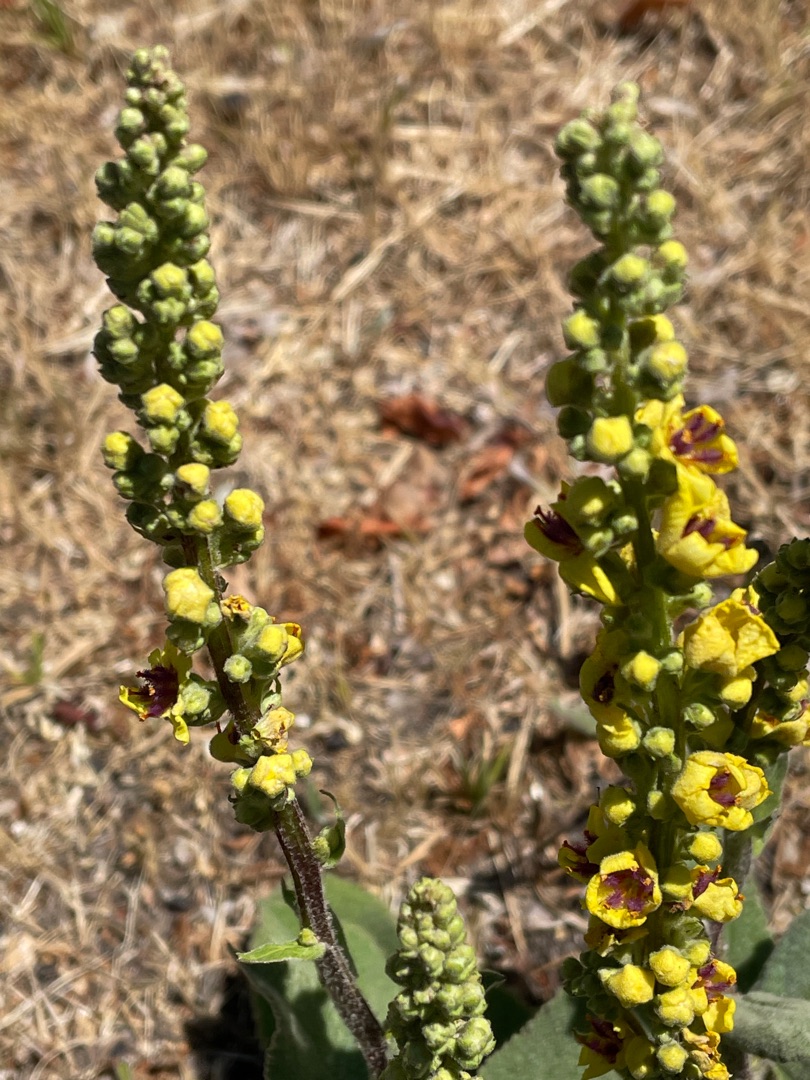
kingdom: Plantae
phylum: Tracheophyta
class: Magnoliopsida
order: Lamiales
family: Scrophulariaceae
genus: Verbascum
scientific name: Verbascum nigrum
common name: Mørk kongelys
